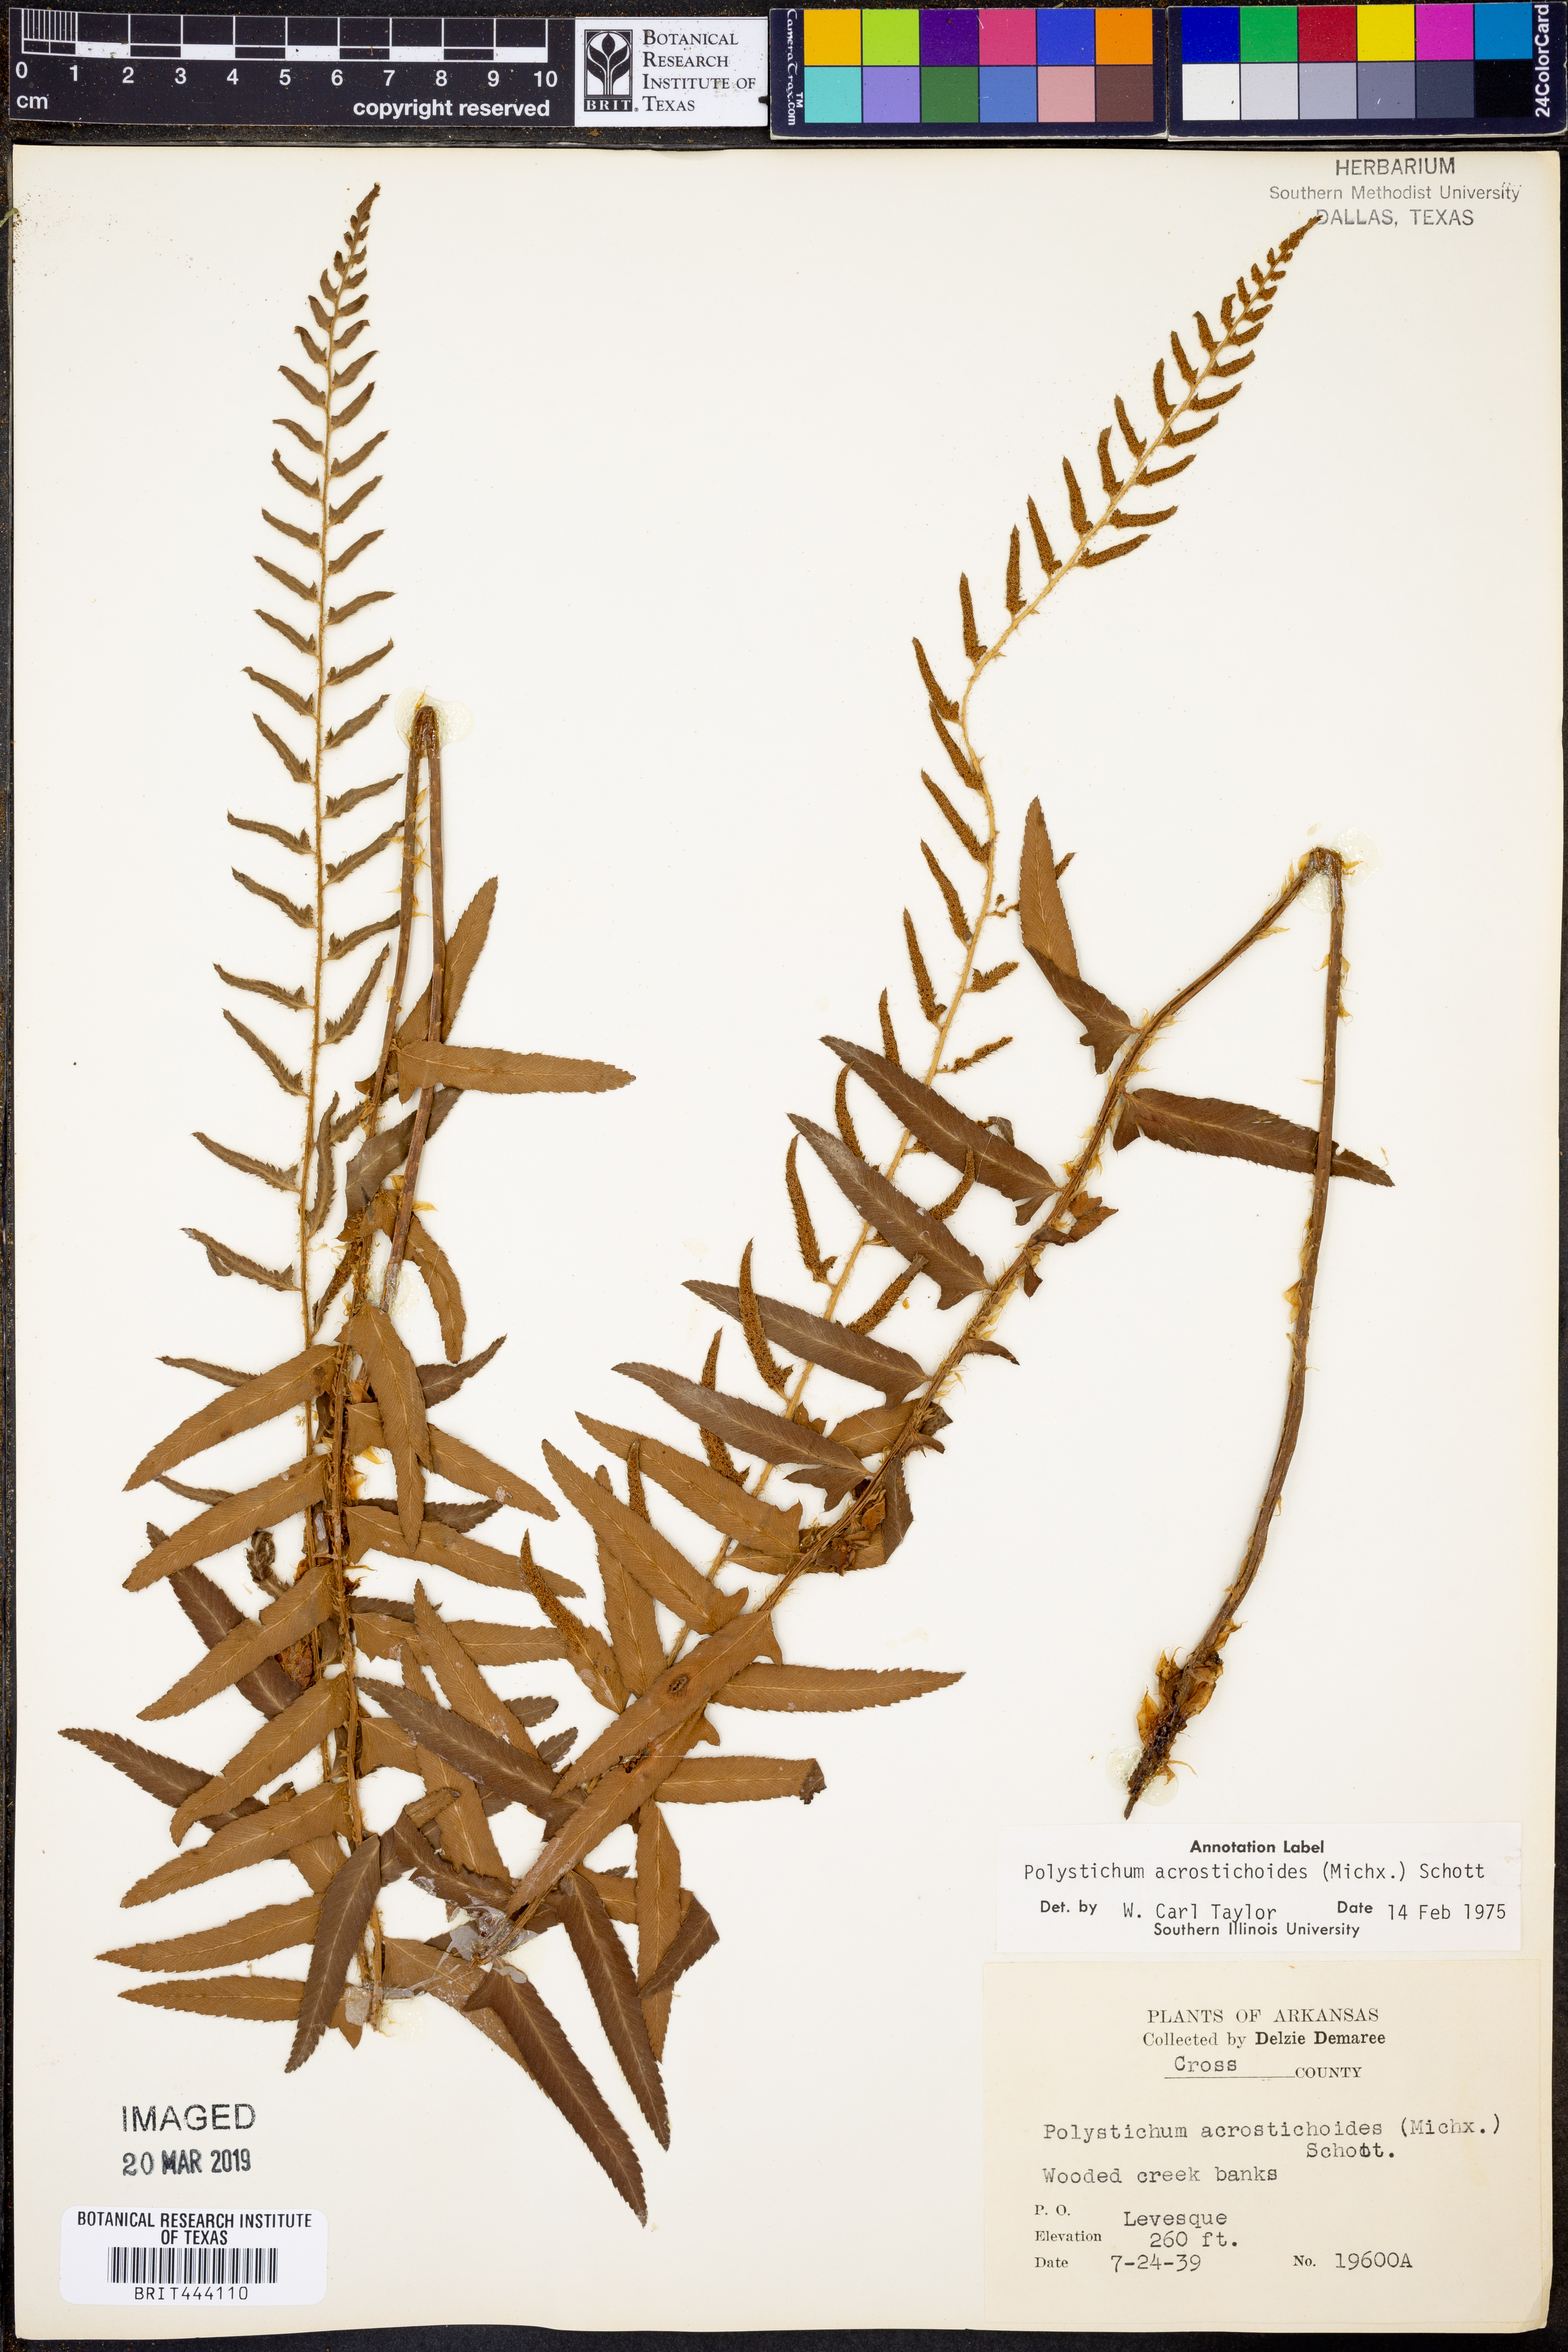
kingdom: Plantae
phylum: Tracheophyta
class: Polypodiopsida
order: Polypodiales
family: Dryopteridaceae
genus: Polystichum
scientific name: Polystichum acrostichoides
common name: Christmas fern
